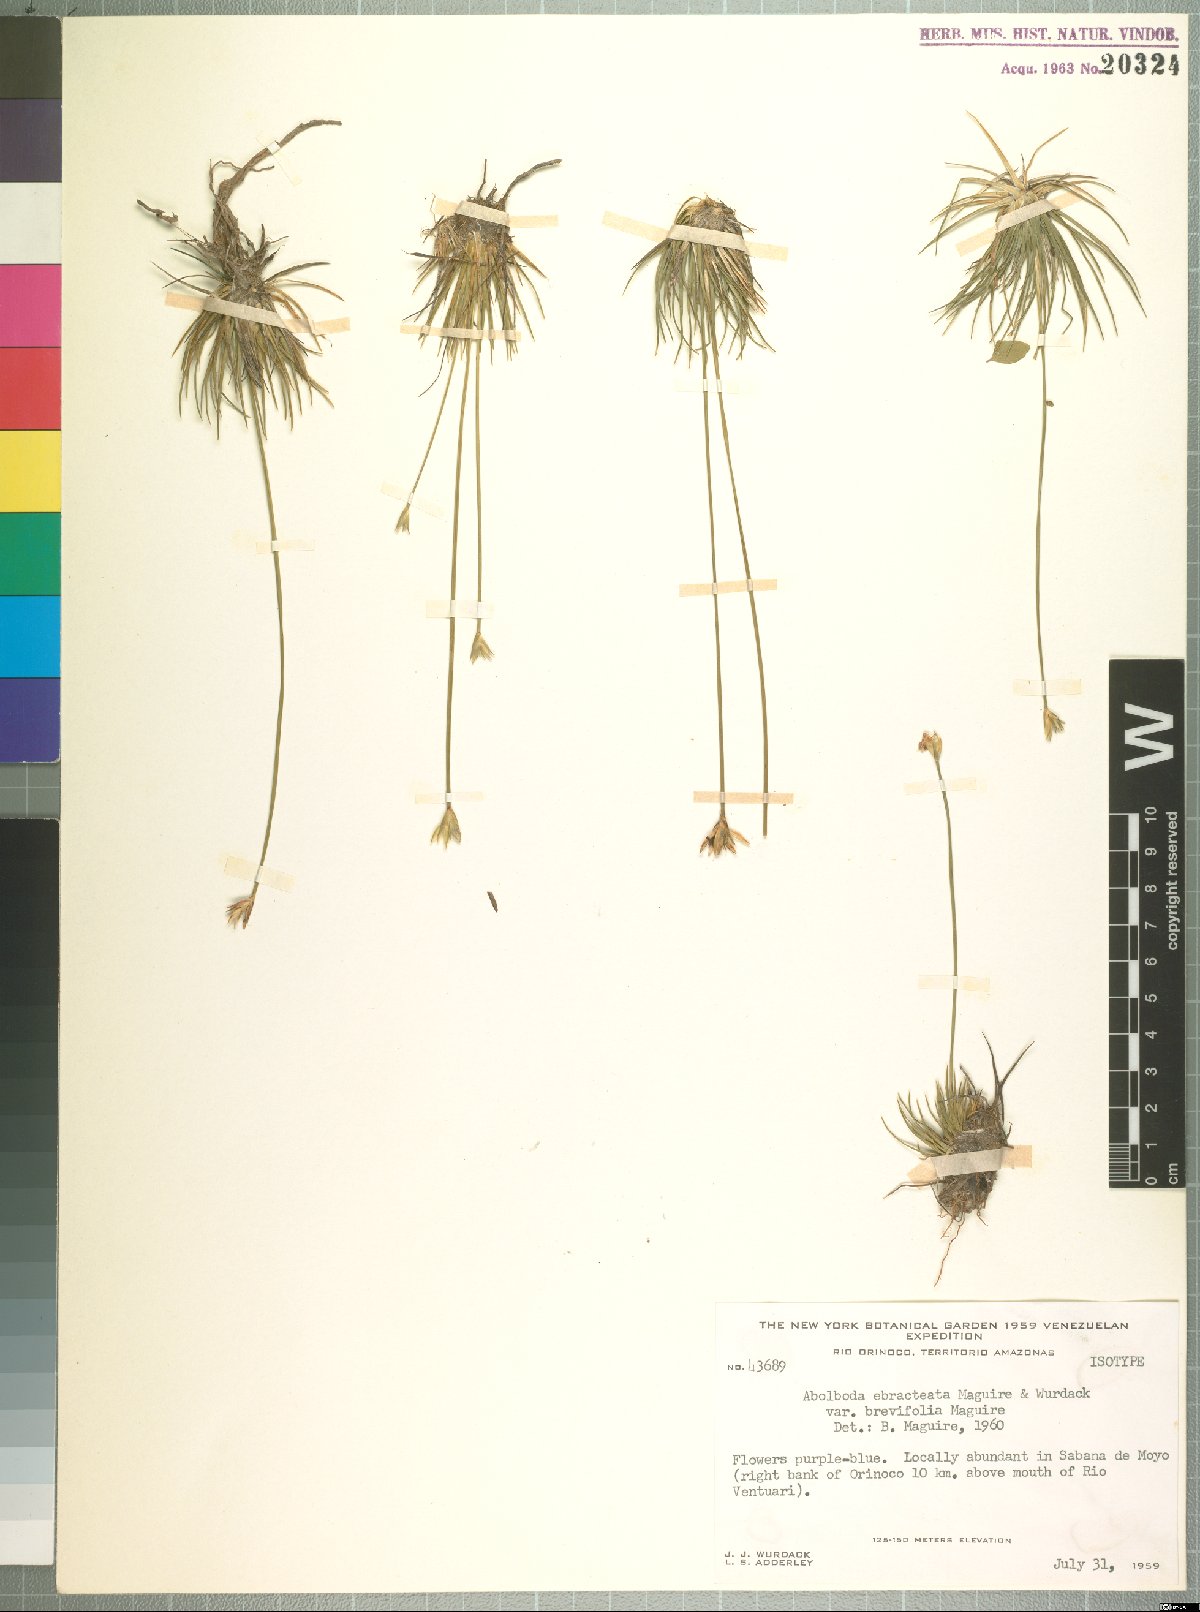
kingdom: Plantae
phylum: Tracheophyta
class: Liliopsida
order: Poales
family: Xyridaceae
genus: Abolboda
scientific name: Abolboda ebracteata
